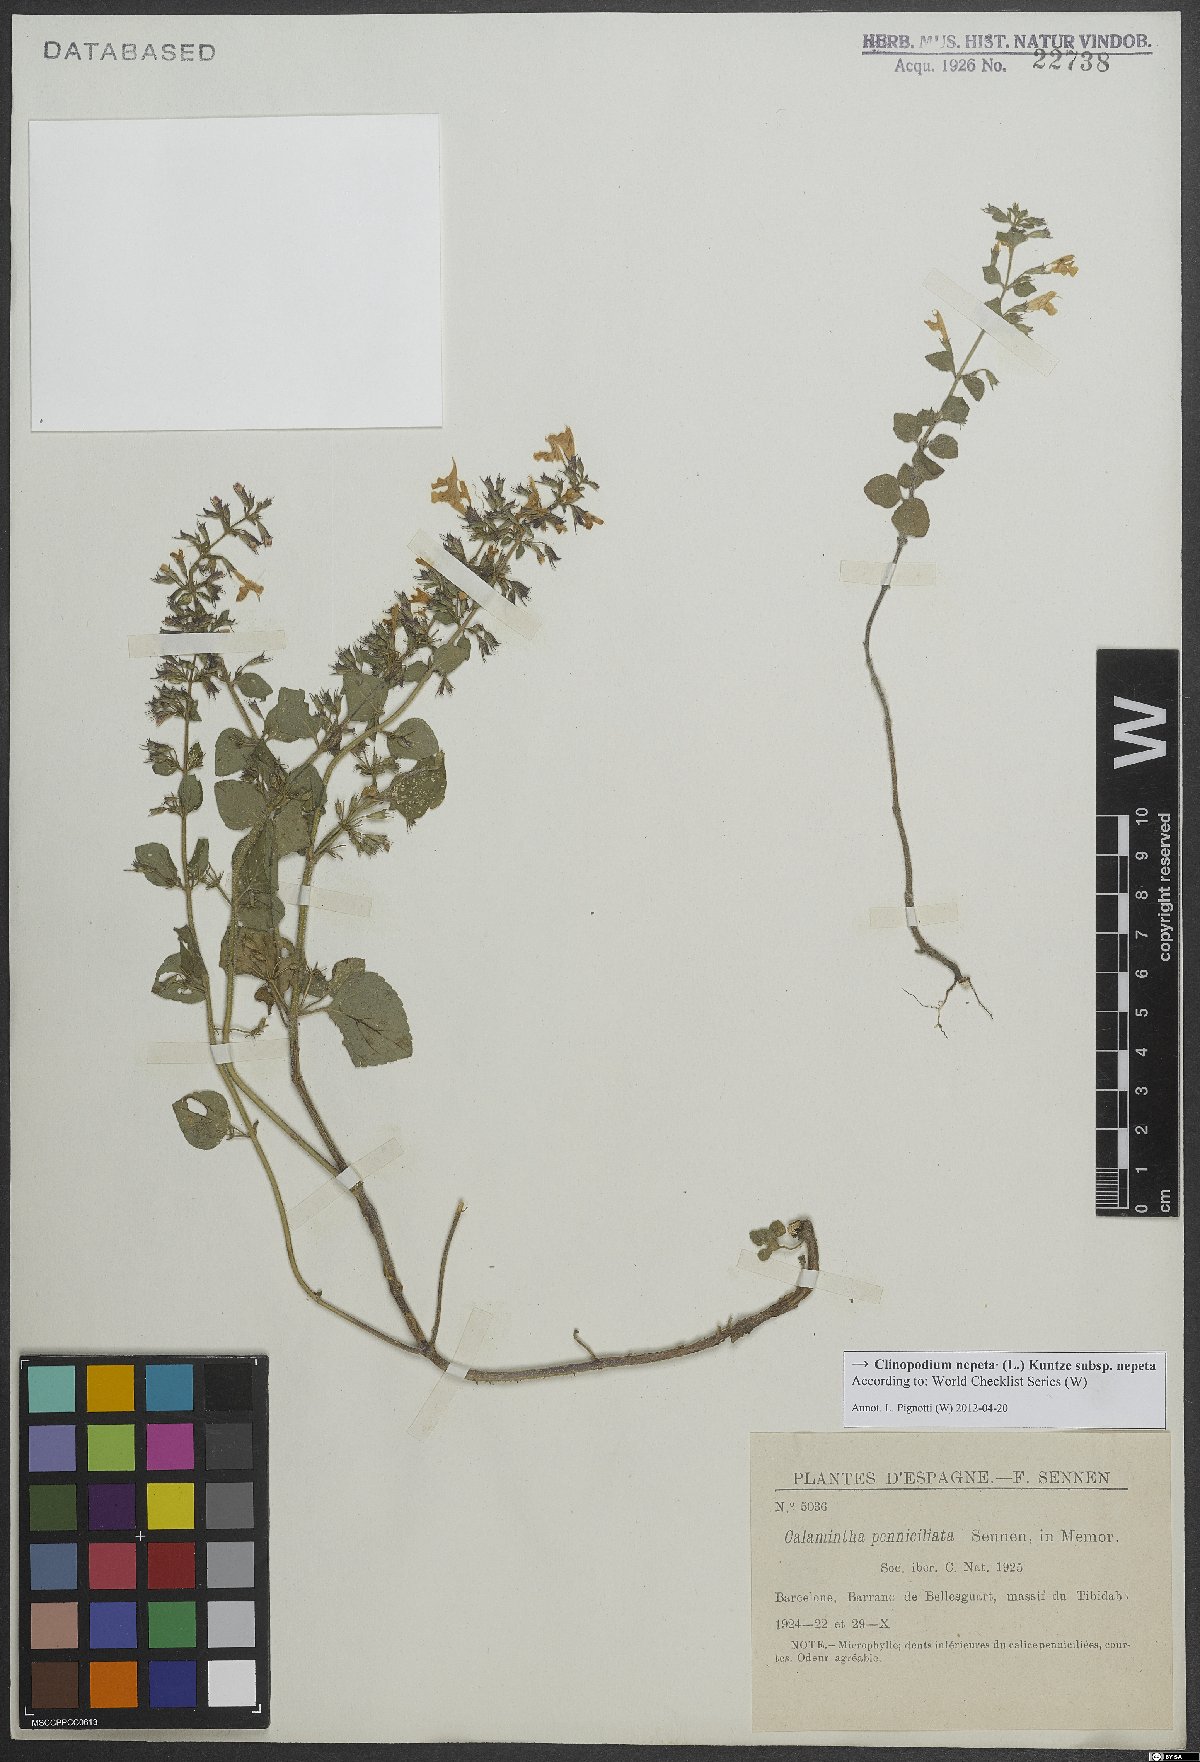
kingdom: Plantae
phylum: Tracheophyta
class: Magnoliopsida
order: Lamiales
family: Lamiaceae
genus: Clinopodium
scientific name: Clinopodium nepeta
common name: Lesser calamint
